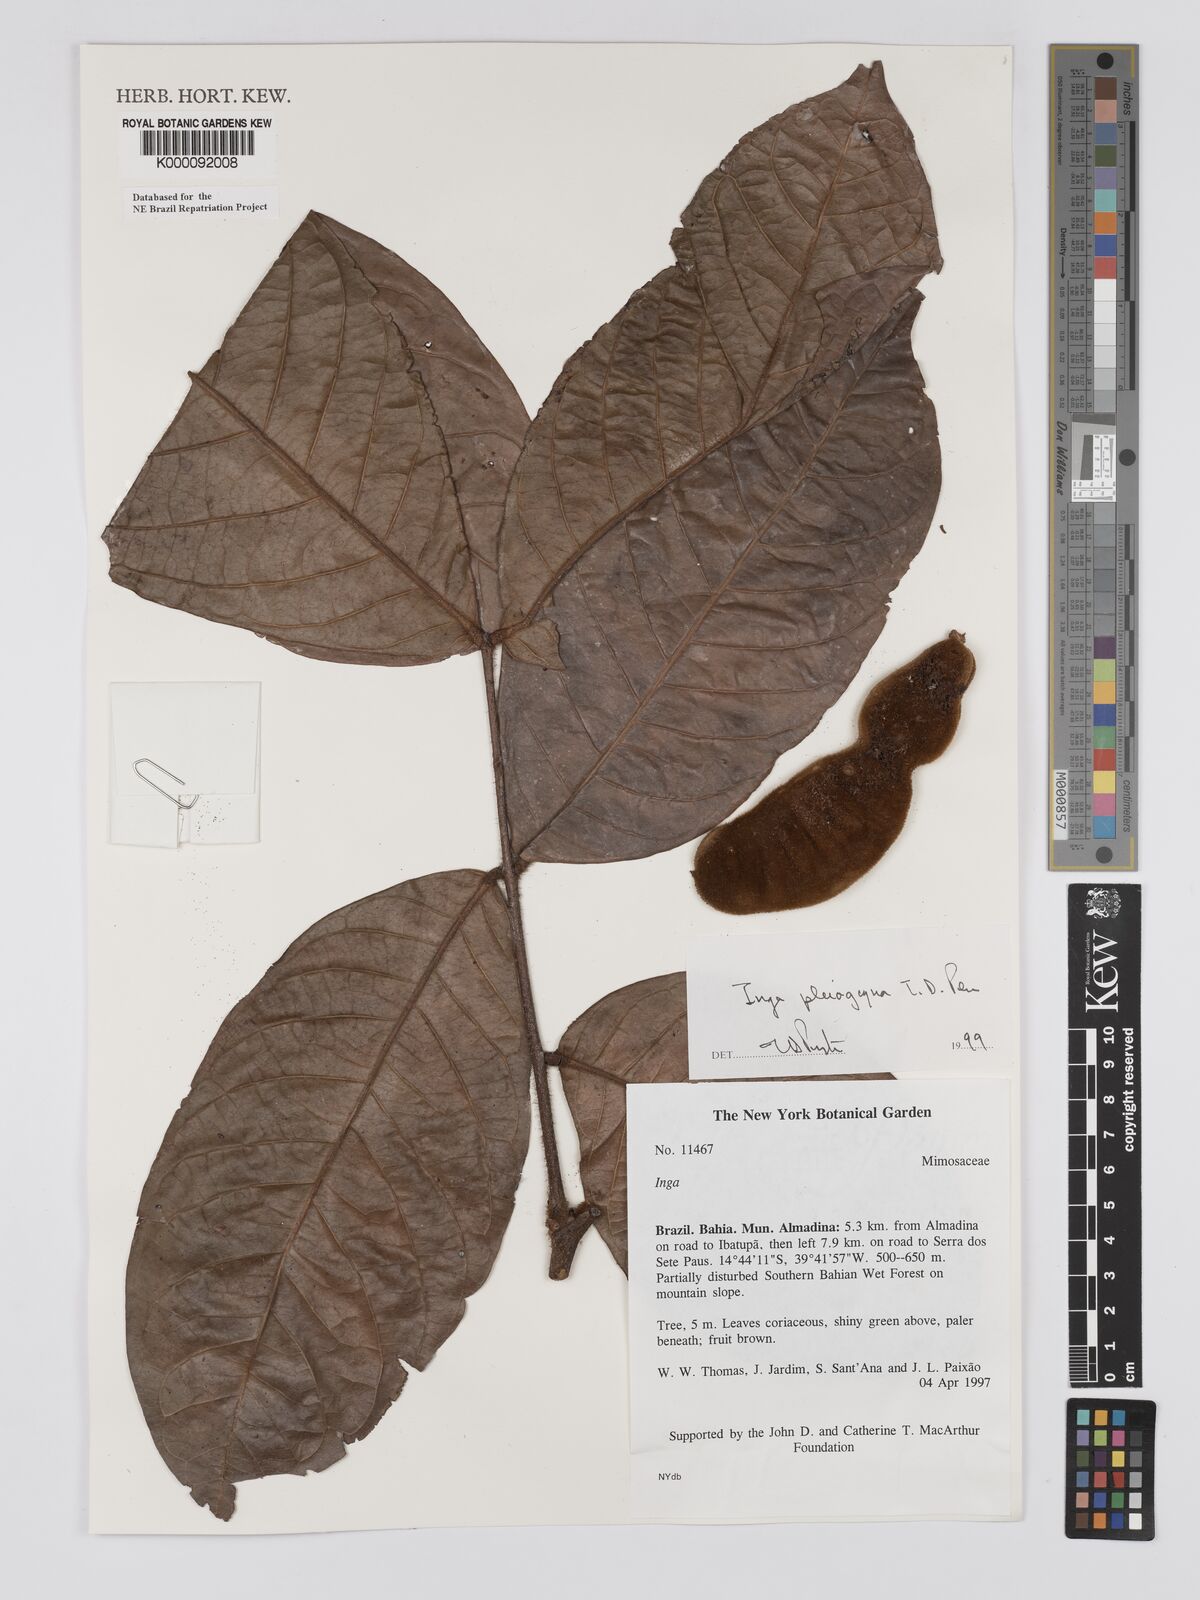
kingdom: Plantae
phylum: Tracheophyta
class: Magnoliopsida
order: Fabales
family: Fabaceae
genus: Inga
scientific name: Inga pleiogyna
